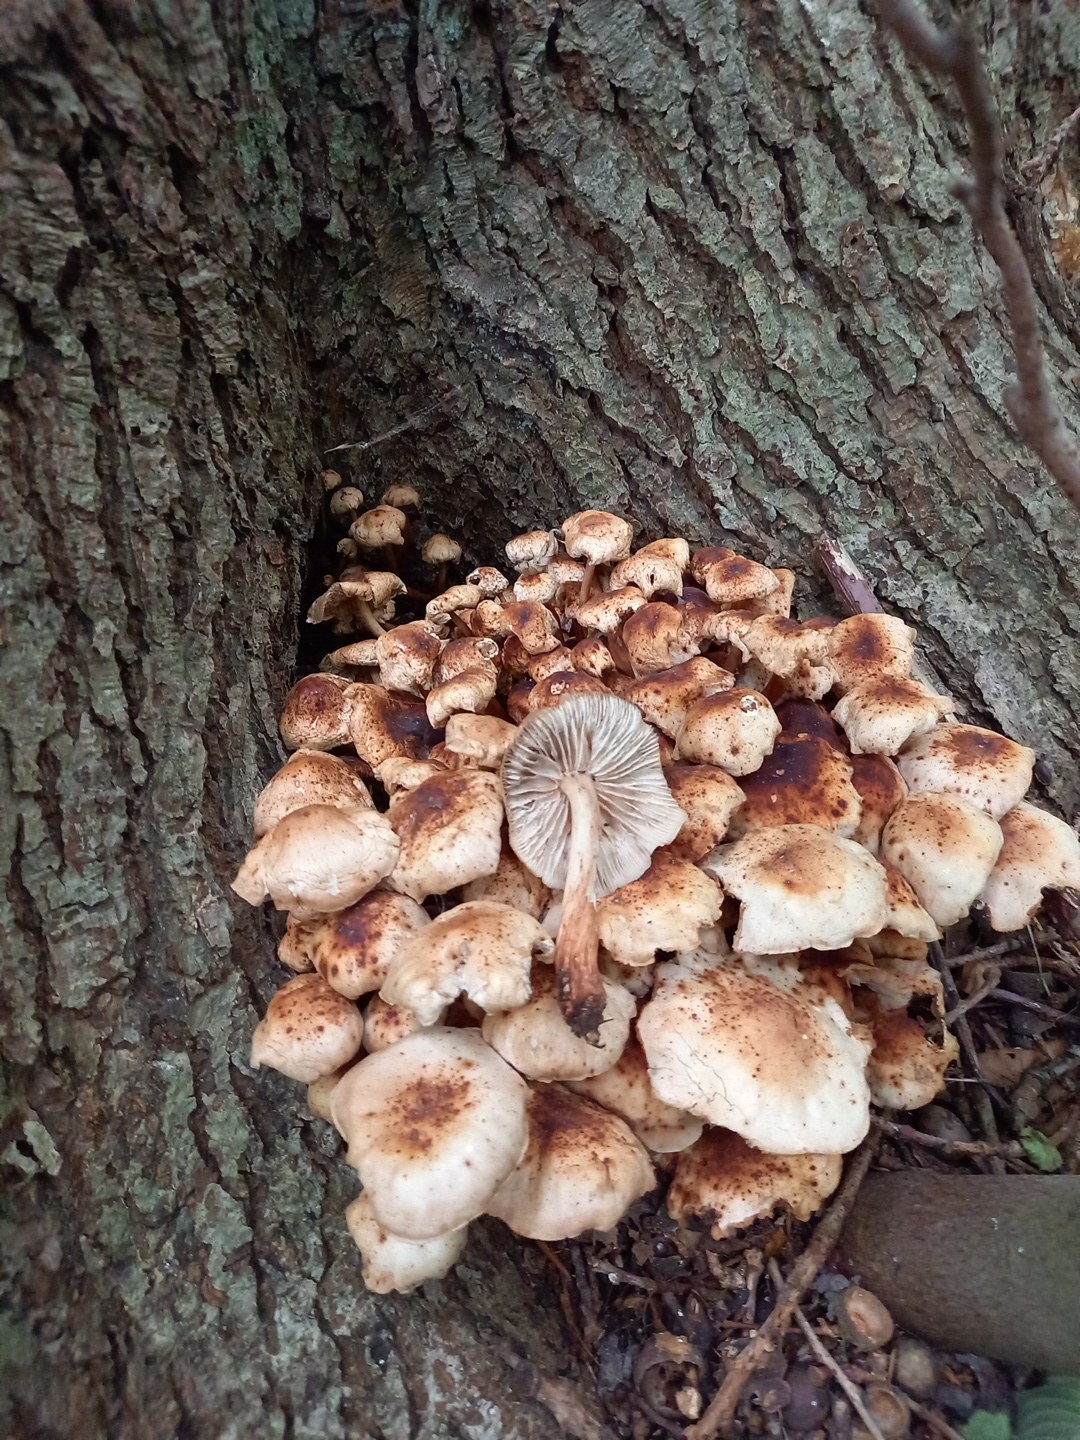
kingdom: Fungi
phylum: Basidiomycota
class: Agaricomycetes
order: Agaricales
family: Omphalotaceae
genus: Gymnopus
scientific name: Gymnopus fusipes
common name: tenstokket fladhat
